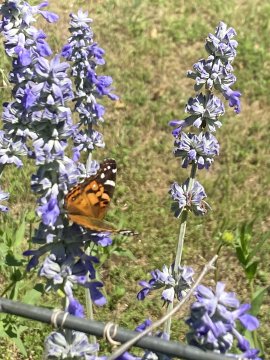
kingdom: Animalia
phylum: Arthropoda
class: Insecta
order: Lepidoptera
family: Nymphalidae
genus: Vanessa
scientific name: Vanessa cardui
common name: Painted Lady
